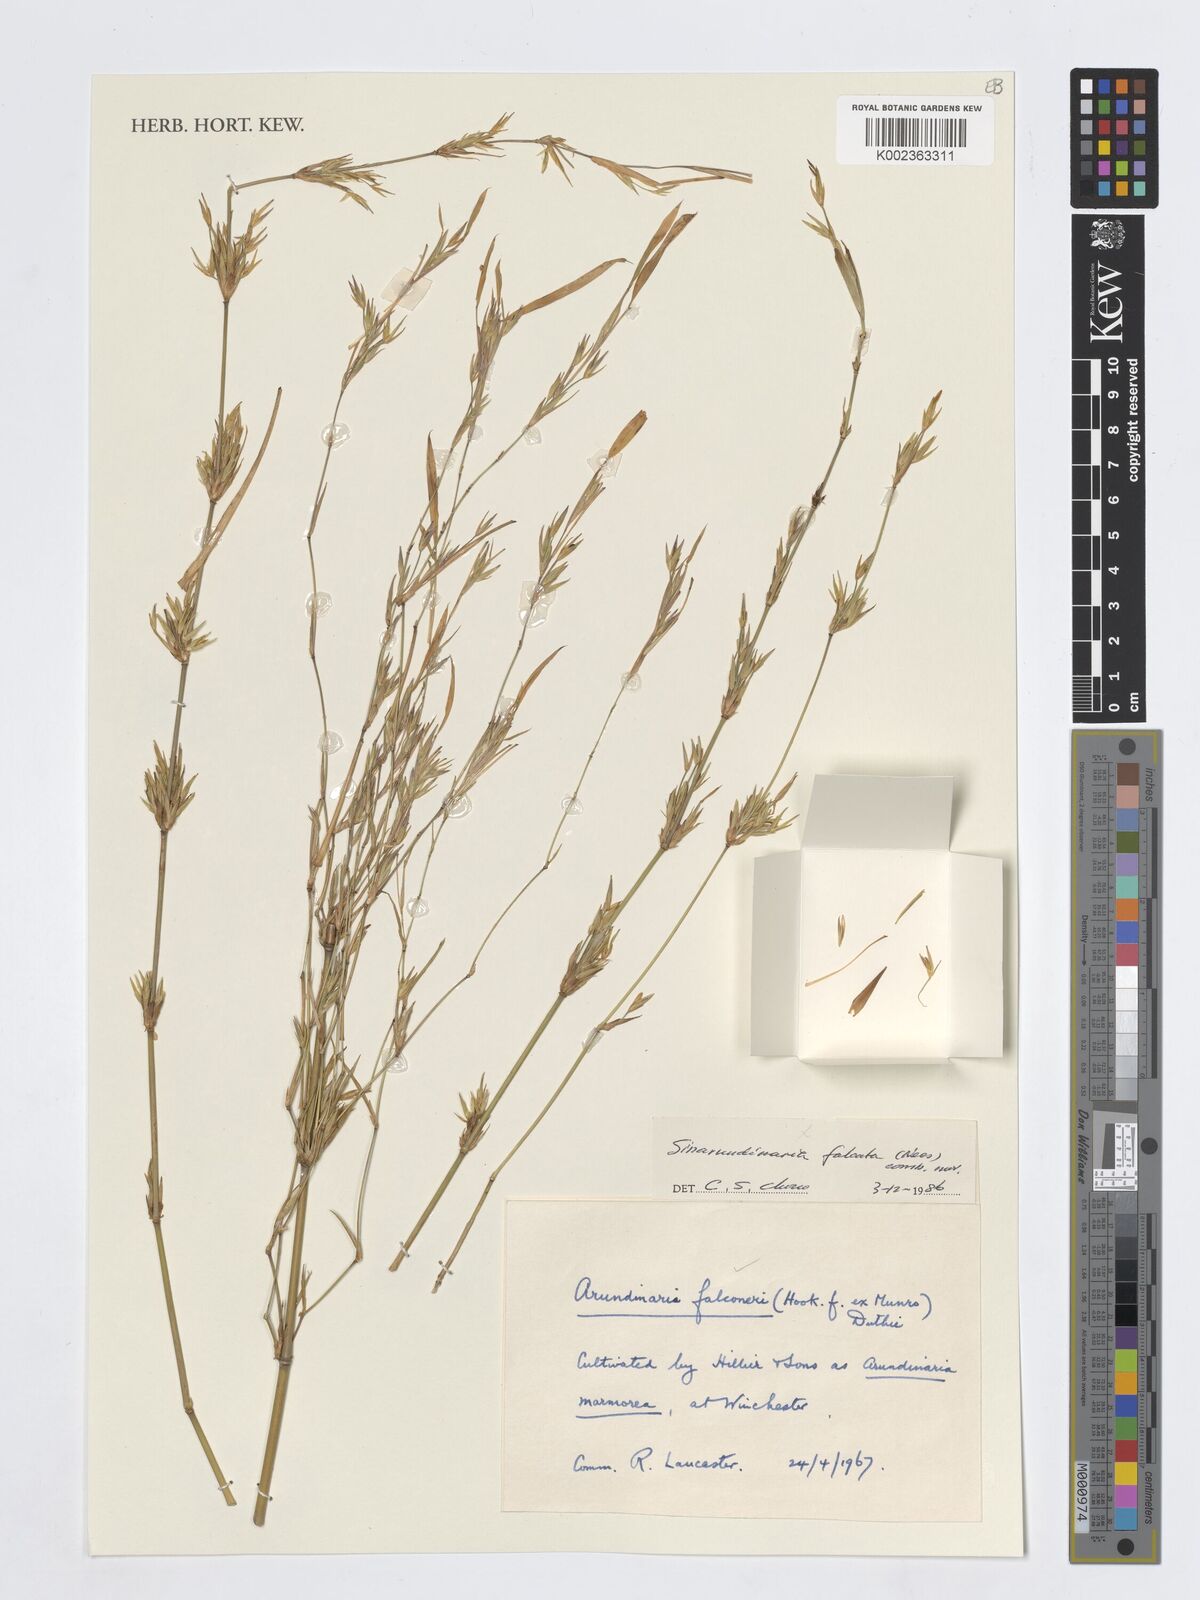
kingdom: Plantae
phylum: Tracheophyta
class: Liliopsida
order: Poales
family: Poaceae
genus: Himalayacalamus
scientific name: Himalayacalamus falconeri
